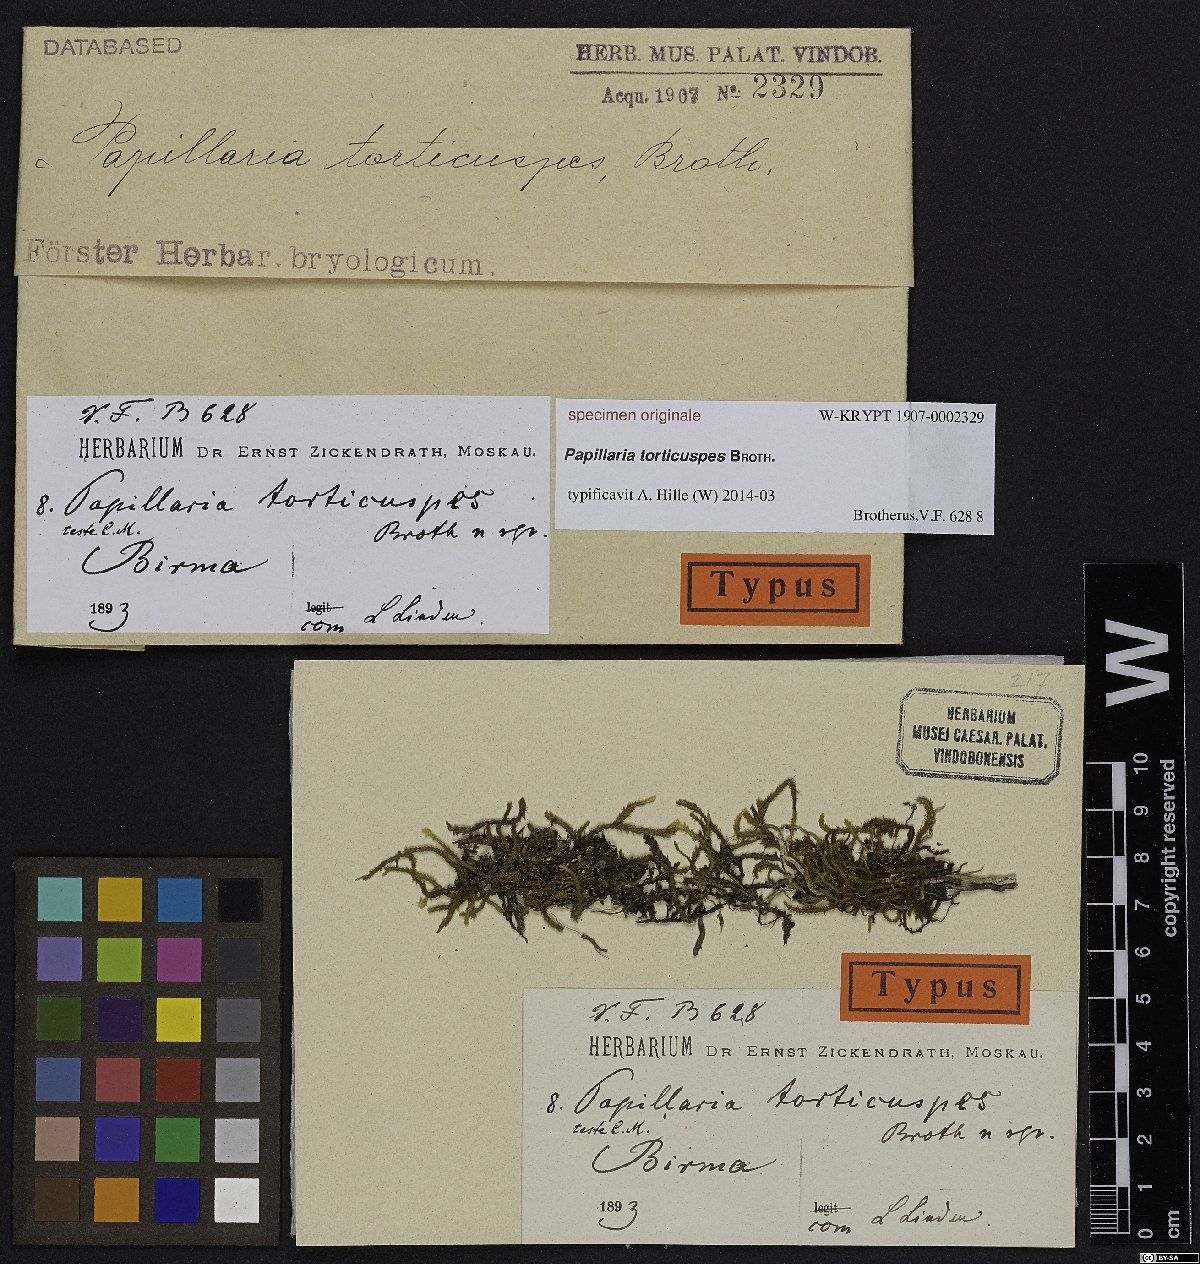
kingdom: Plantae
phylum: Bryophyta
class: Bryopsida
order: Hypnales
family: Meteoriaceae
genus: Papillaria
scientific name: Papillaria
